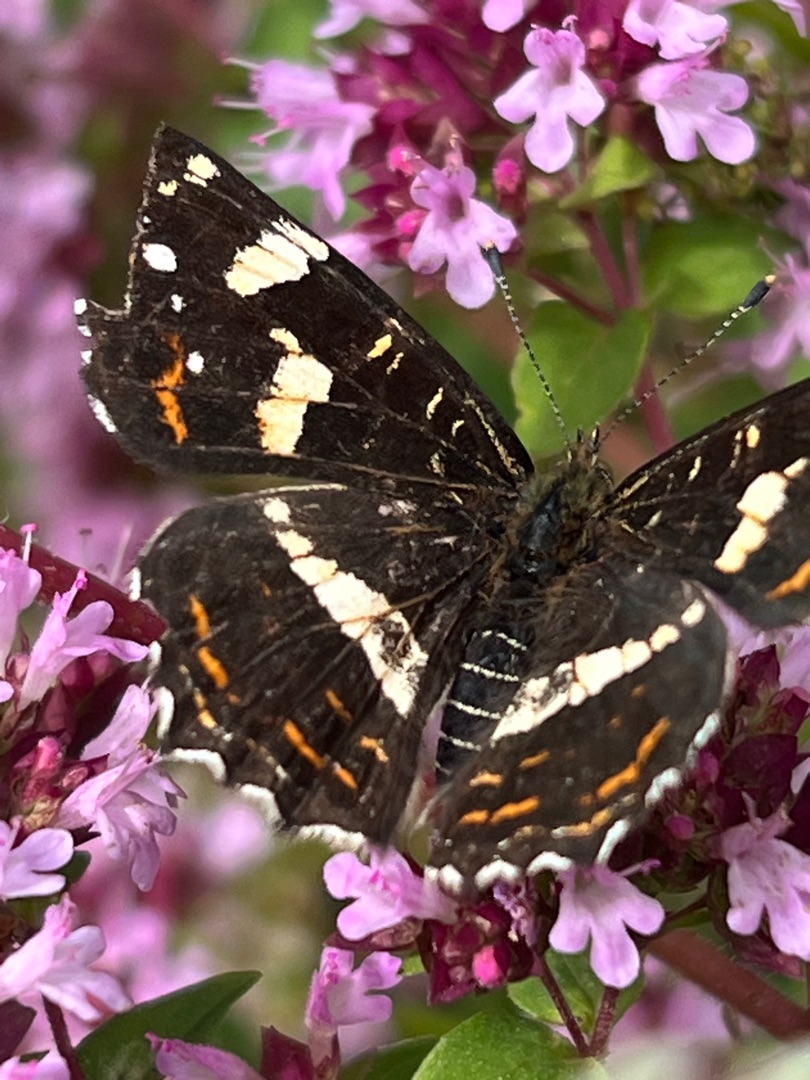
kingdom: Animalia
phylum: Arthropoda
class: Insecta
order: Lepidoptera
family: Nymphalidae
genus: Araschnia
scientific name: Araschnia levana
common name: Nældesommerfugl
